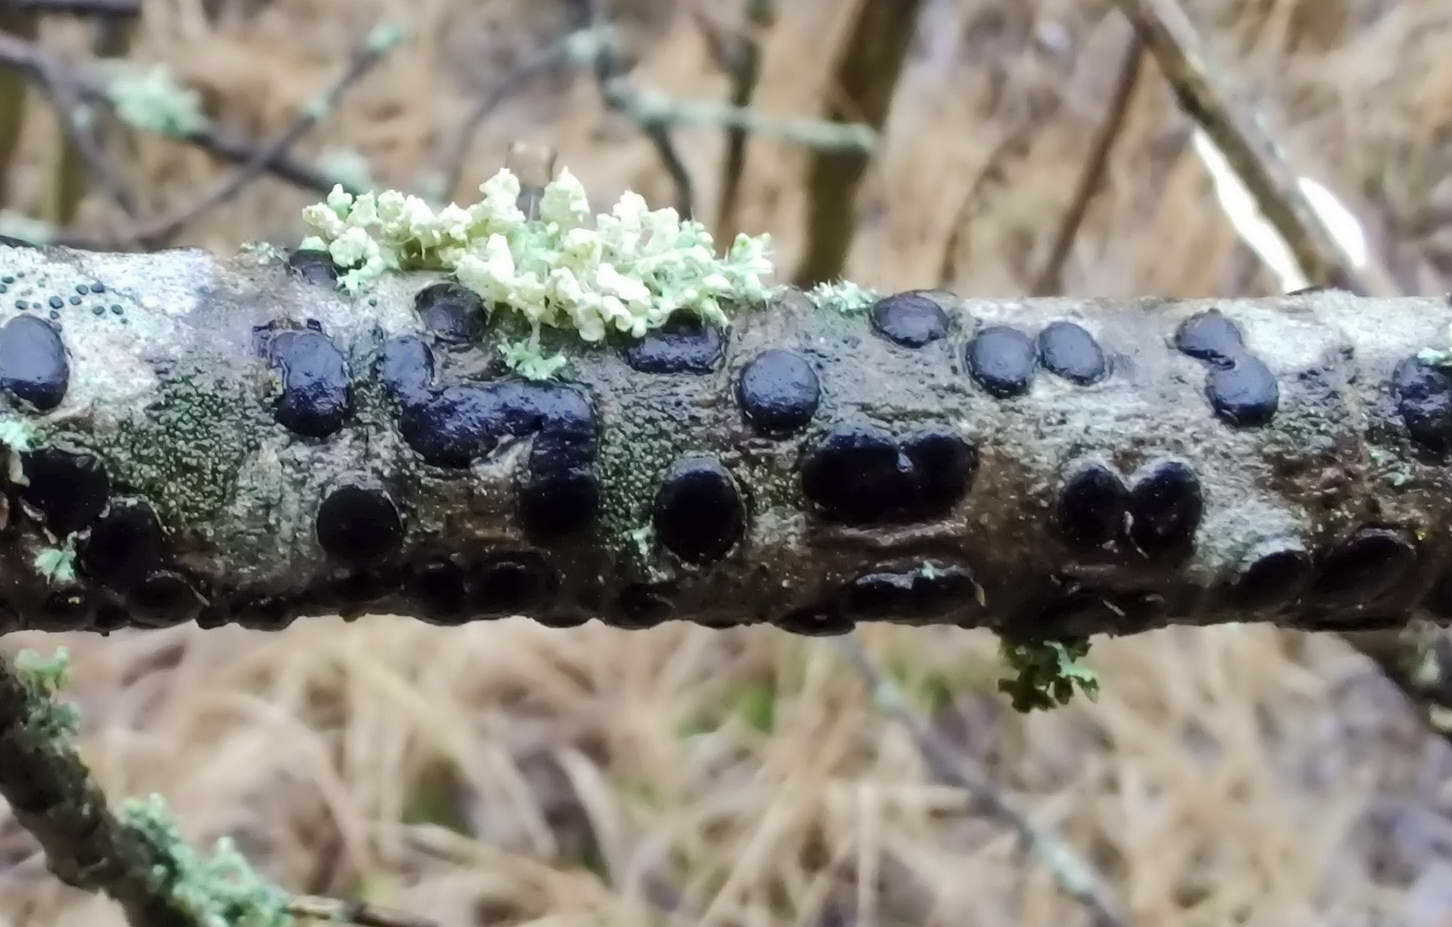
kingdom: Fungi
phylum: Ascomycota
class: Sordariomycetes
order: Xylariales
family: Diatrypaceae
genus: Diatrype
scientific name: Diatrype bullata
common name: pile-kulskorpe
